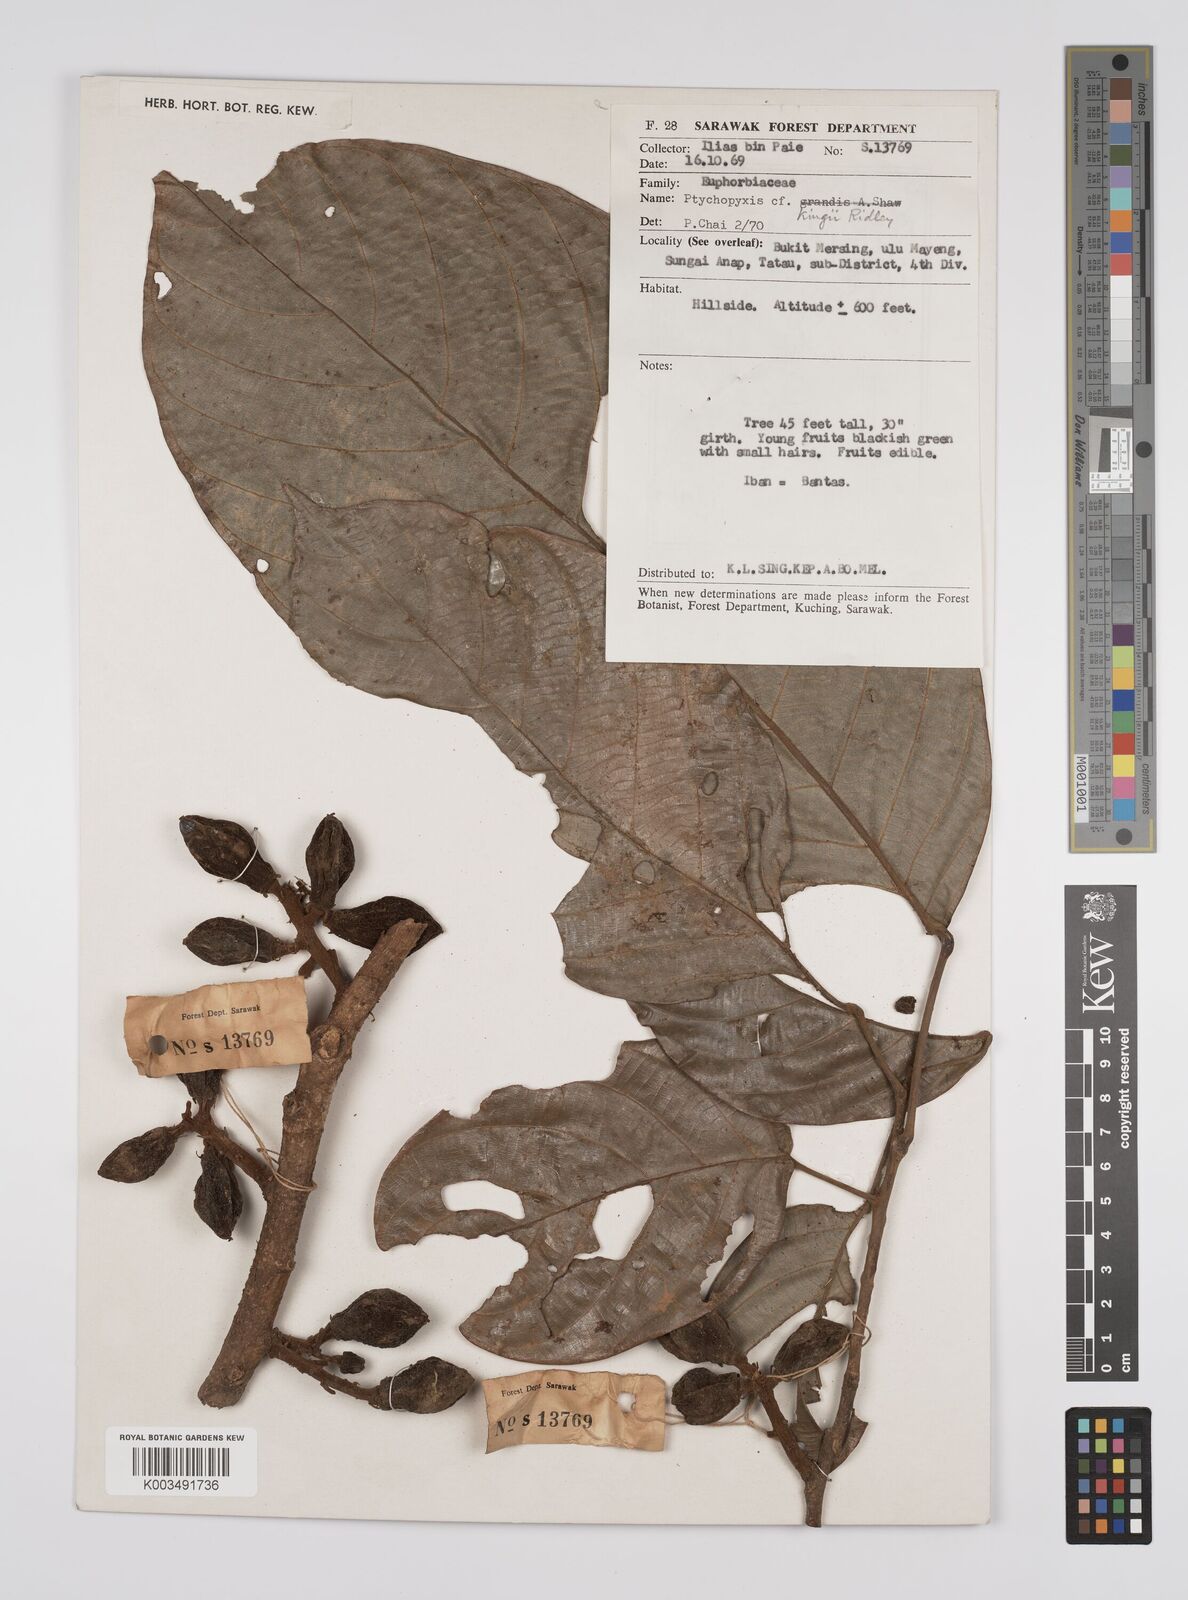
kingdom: Plantae
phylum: Tracheophyta
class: Magnoliopsida
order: Malpighiales
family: Euphorbiaceae
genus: Ptychopyxis
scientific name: Ptychopyxis kingii
